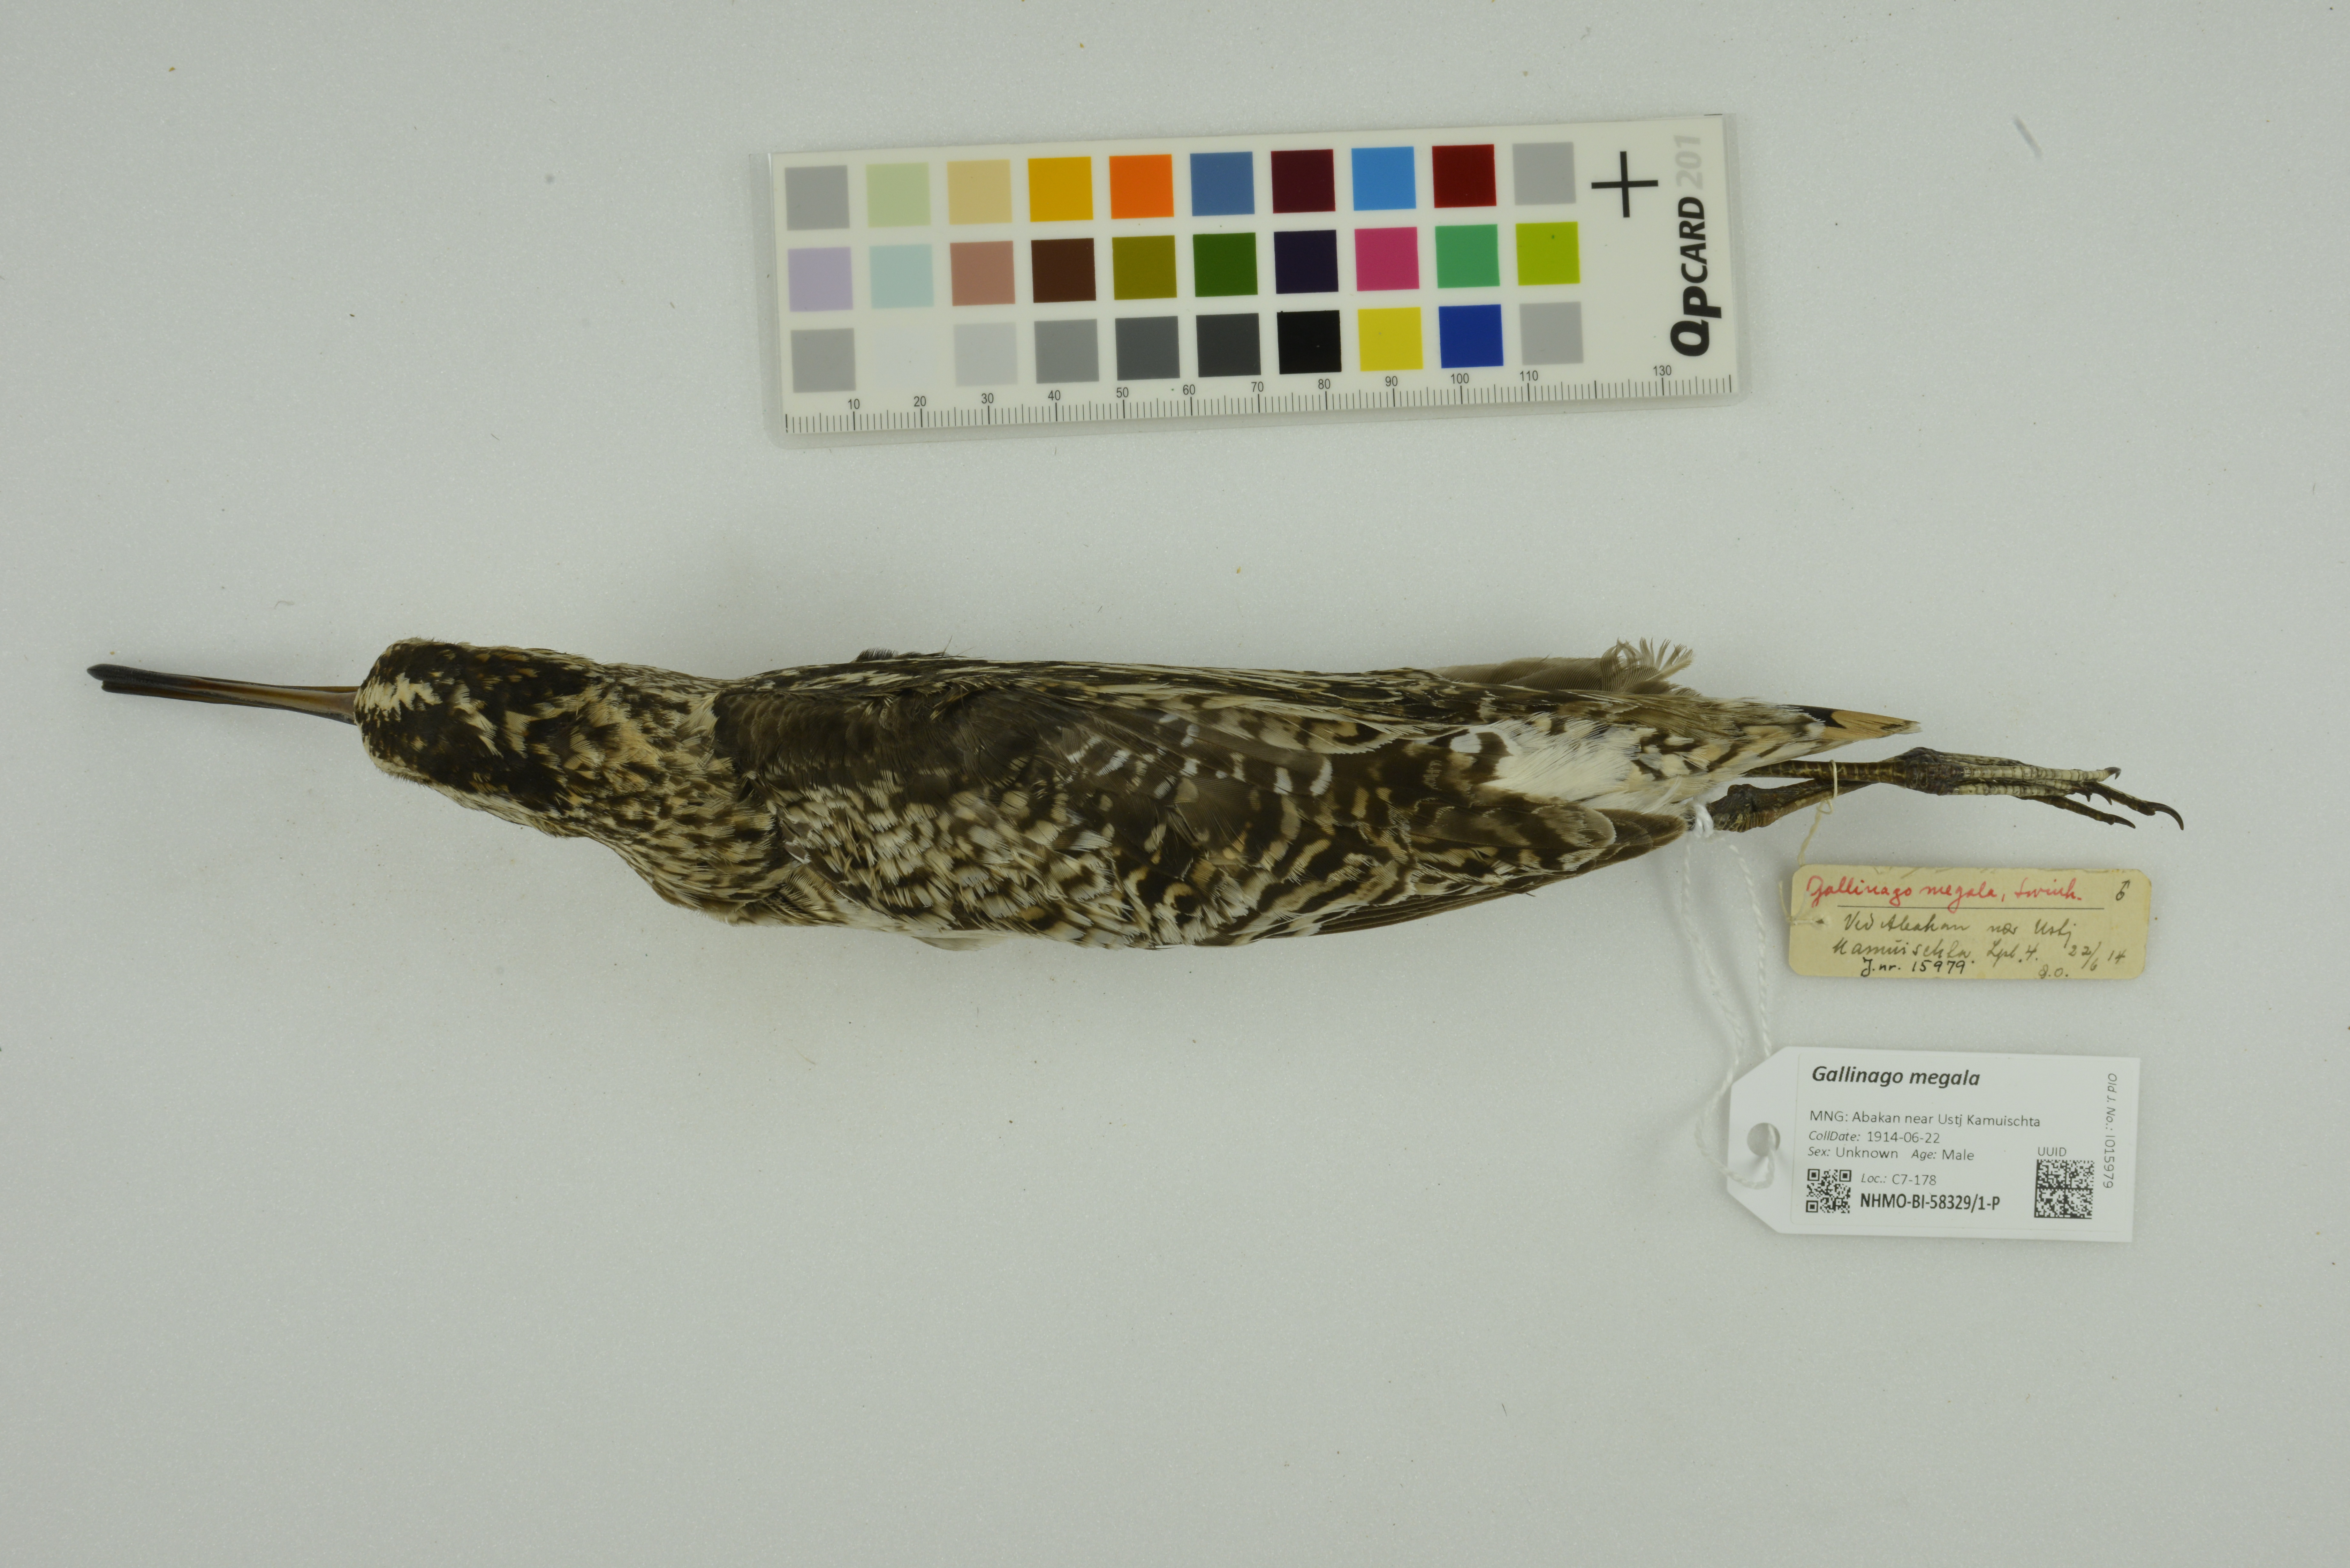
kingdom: Animalia
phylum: Chordata
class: Aves
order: Charadriiformes
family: Scolopacidae
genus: Gallinago
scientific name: Gallinago megala
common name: Swinhoe's snipe
